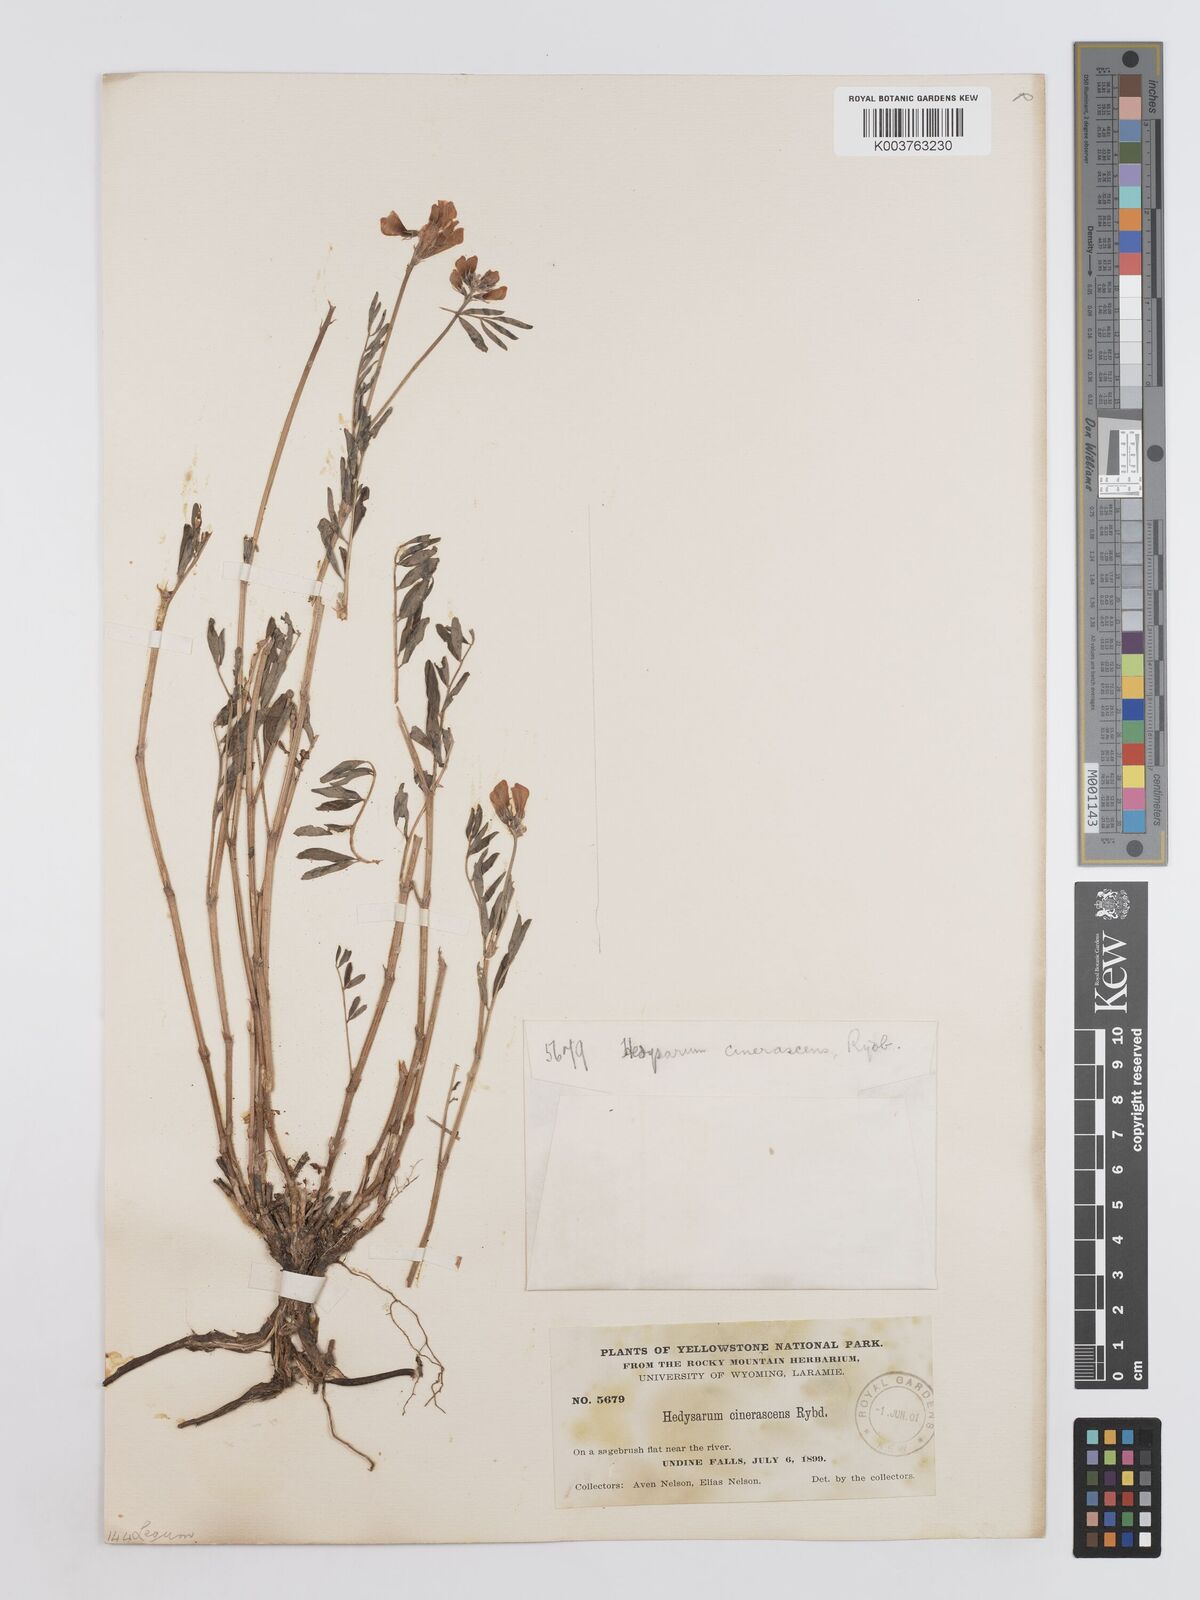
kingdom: Plantae
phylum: Tracheophyta
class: Magnoliopsida
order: Fabales
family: Fabaceae
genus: Hedysarum
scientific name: Hedysarum boreale
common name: Northern sweet-vetch
